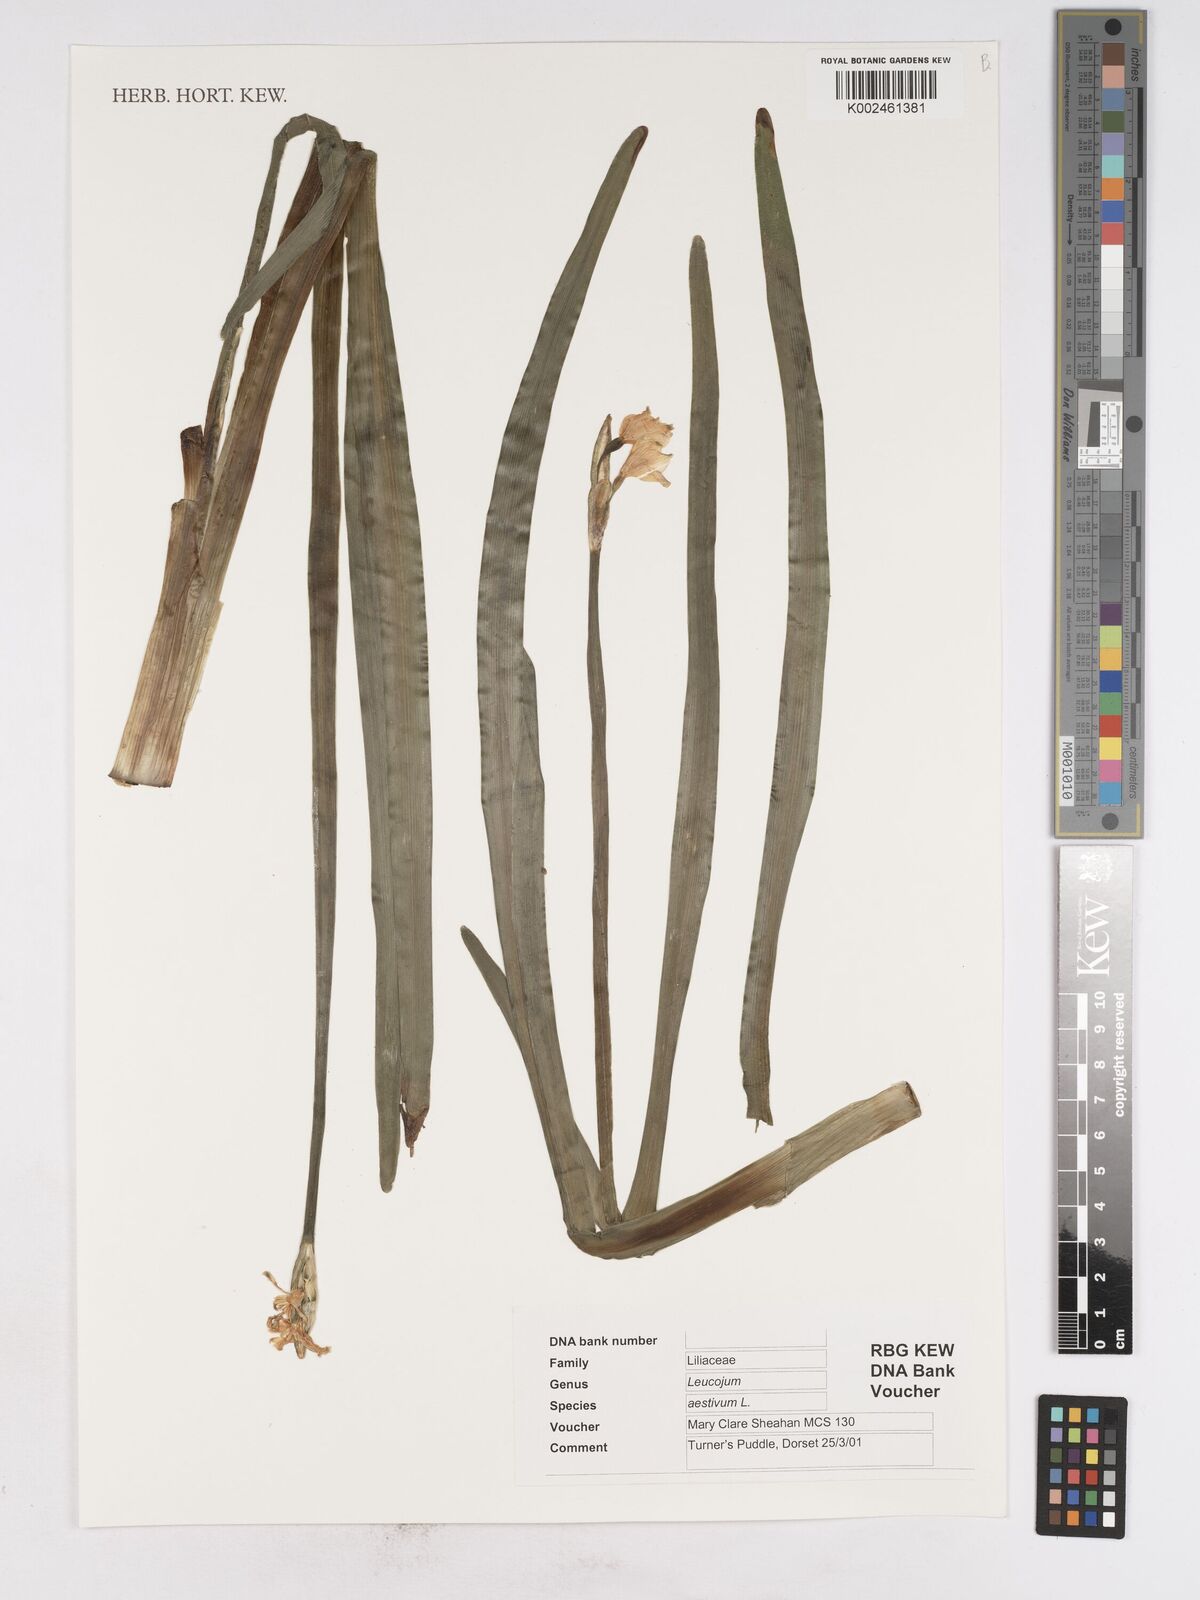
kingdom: Plantae
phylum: Tracheophyta
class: Liliopsida
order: Asparagales
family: Amaryllidaceae
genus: Leucojum
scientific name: Leucojum aestivum
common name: Summer snowflake
